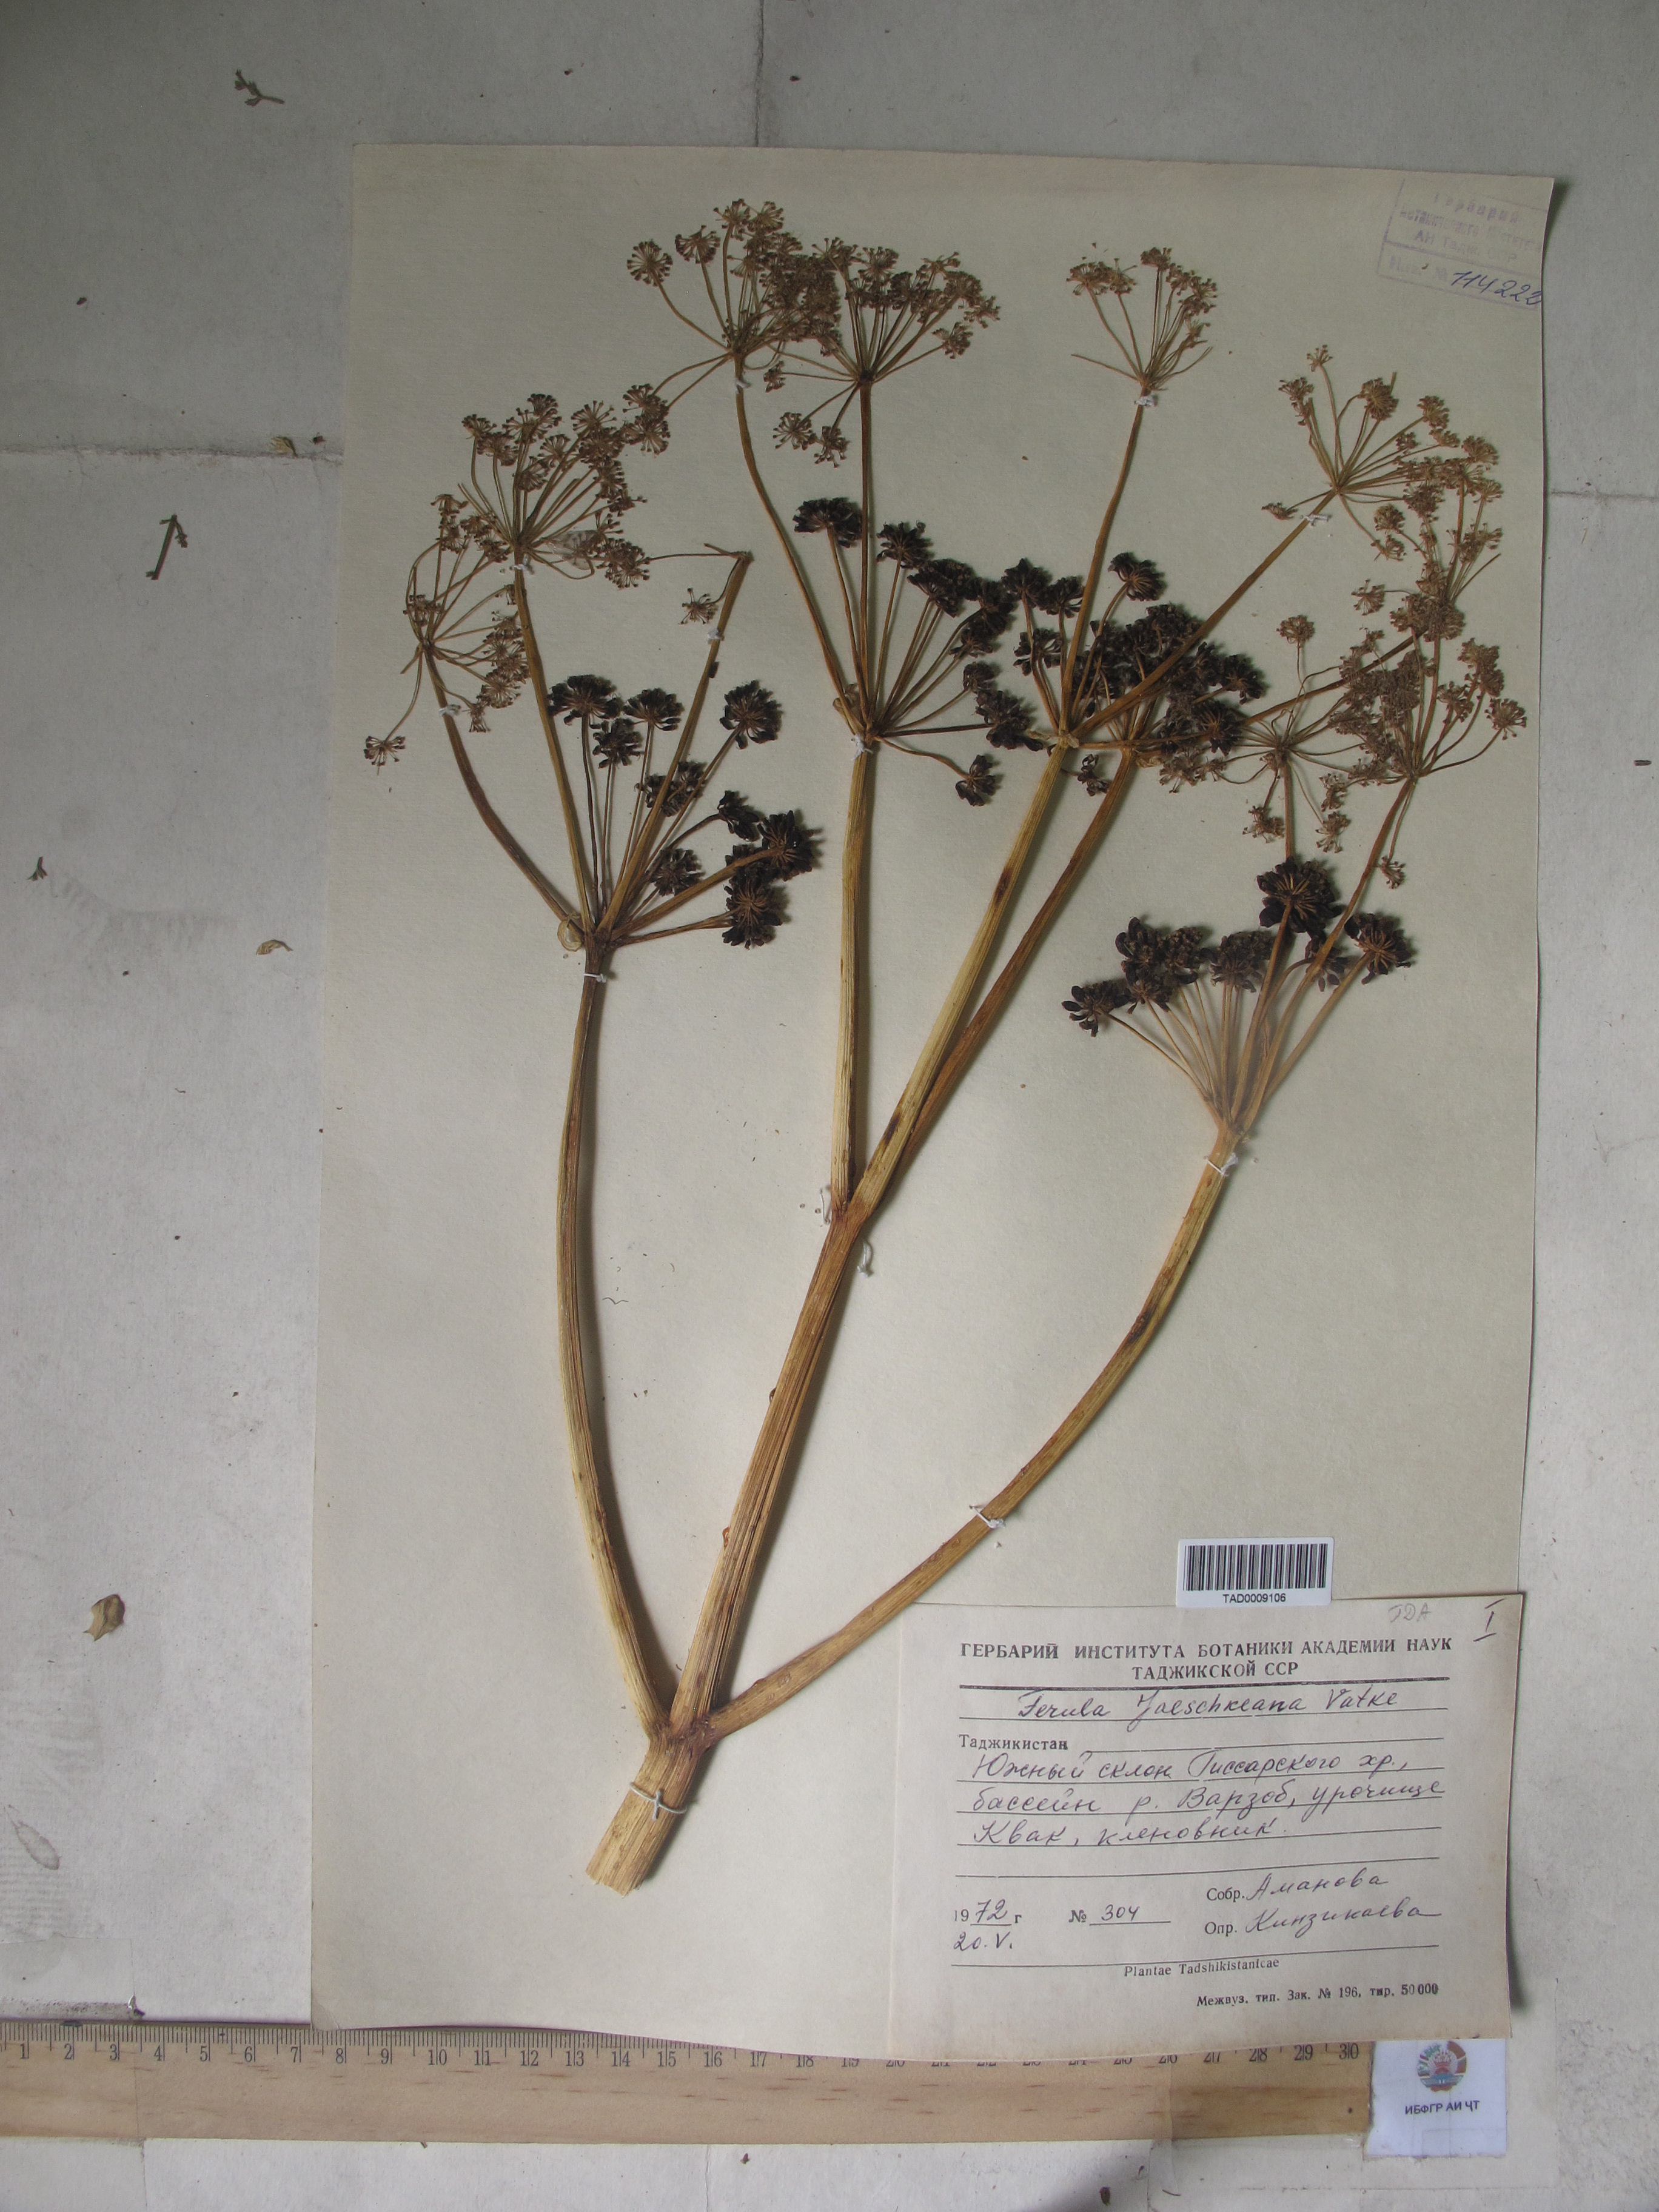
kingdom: Plantae
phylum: Tracheophyta
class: Magnoliopsida
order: Apiales
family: Apiaceae
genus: Ferula
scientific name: Ferula jaeschkeana
